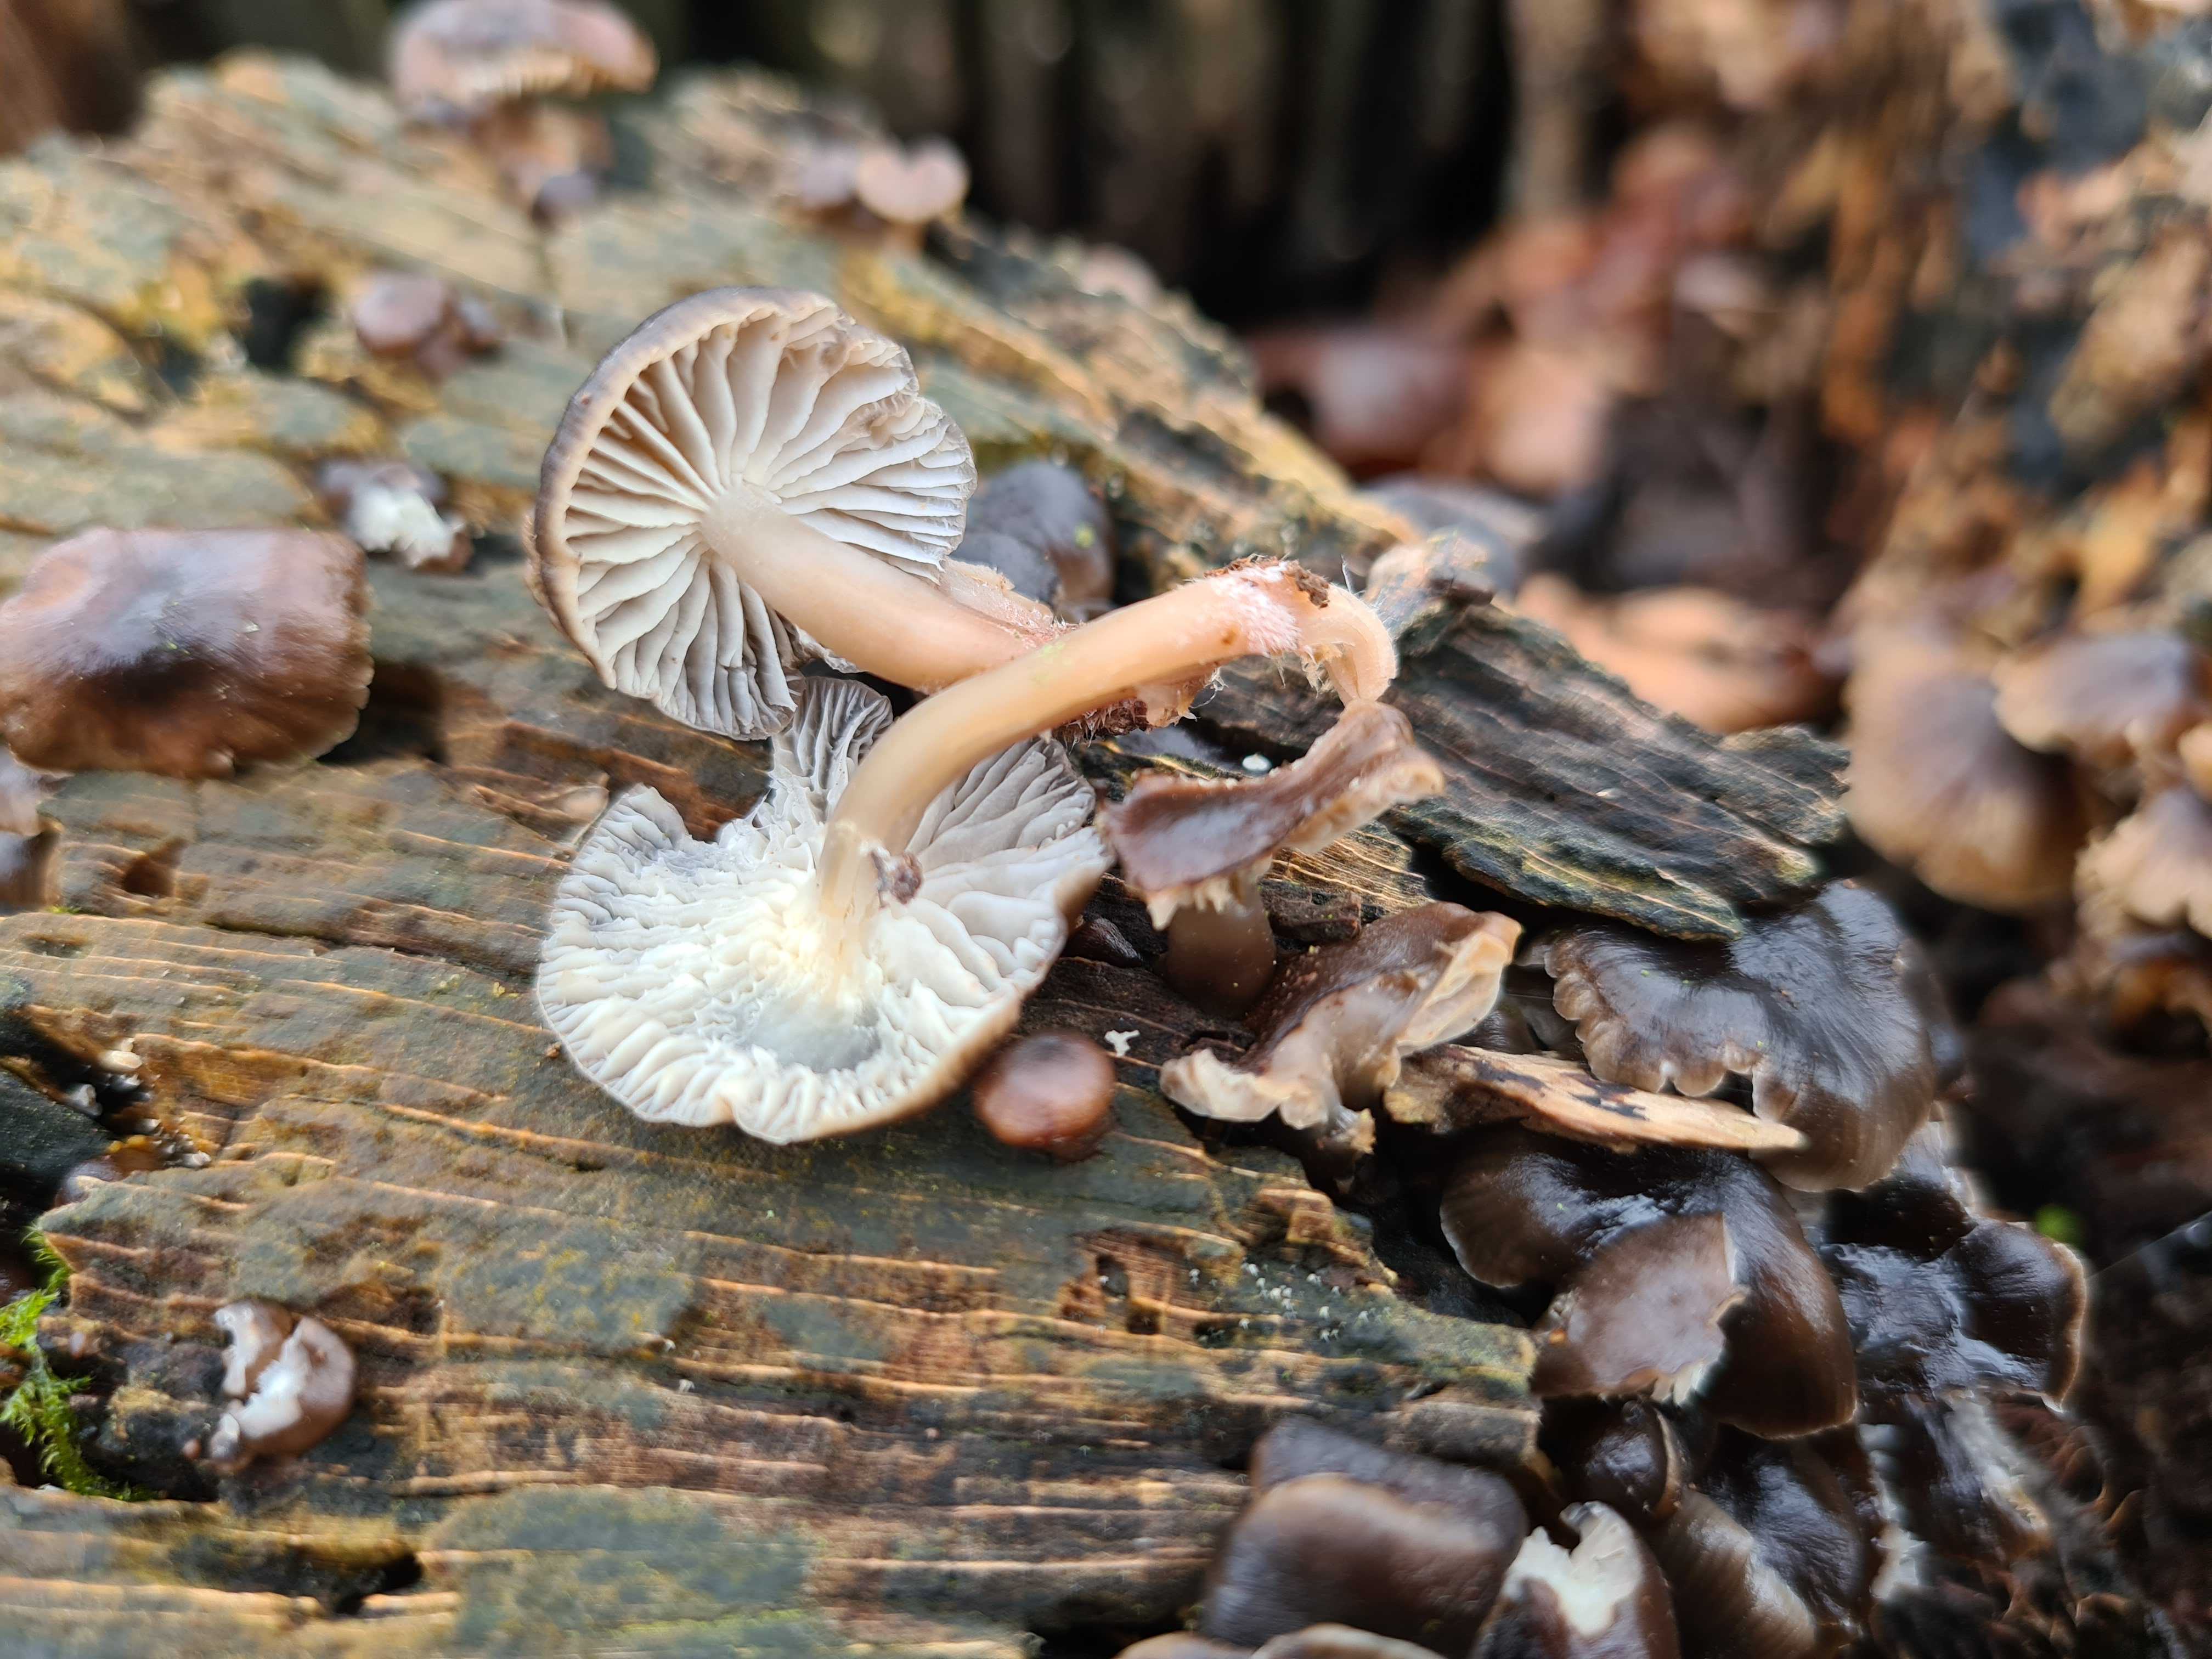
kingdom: Fungi
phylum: Basidiomycota
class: Agaricomycetes
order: Agaricales
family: Mycenaceae
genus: Mycena
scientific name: Mycena tintinnabulum
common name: vinter-huesvamp
